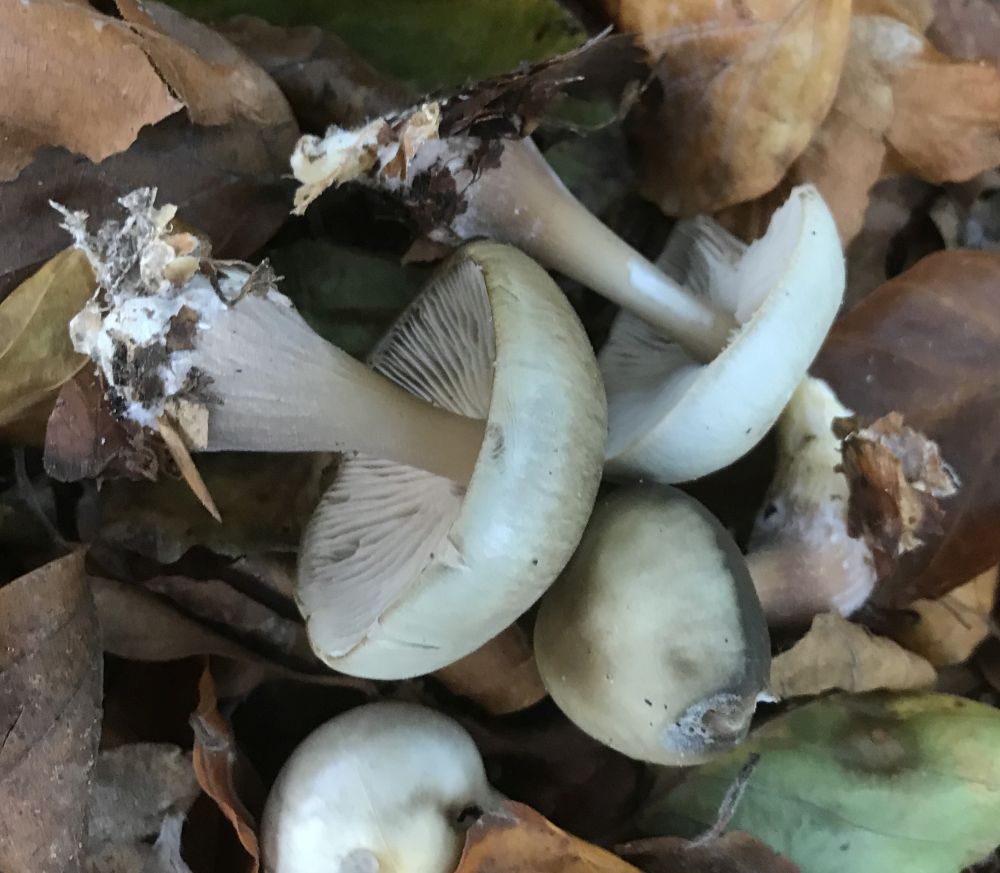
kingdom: Fungi
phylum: Basidiomycota
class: Agaricomycetes
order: Agaricales
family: Omphalotaceae
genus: Rhodocollybia
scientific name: Rhodocollybia asema
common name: horngrå fladhat
